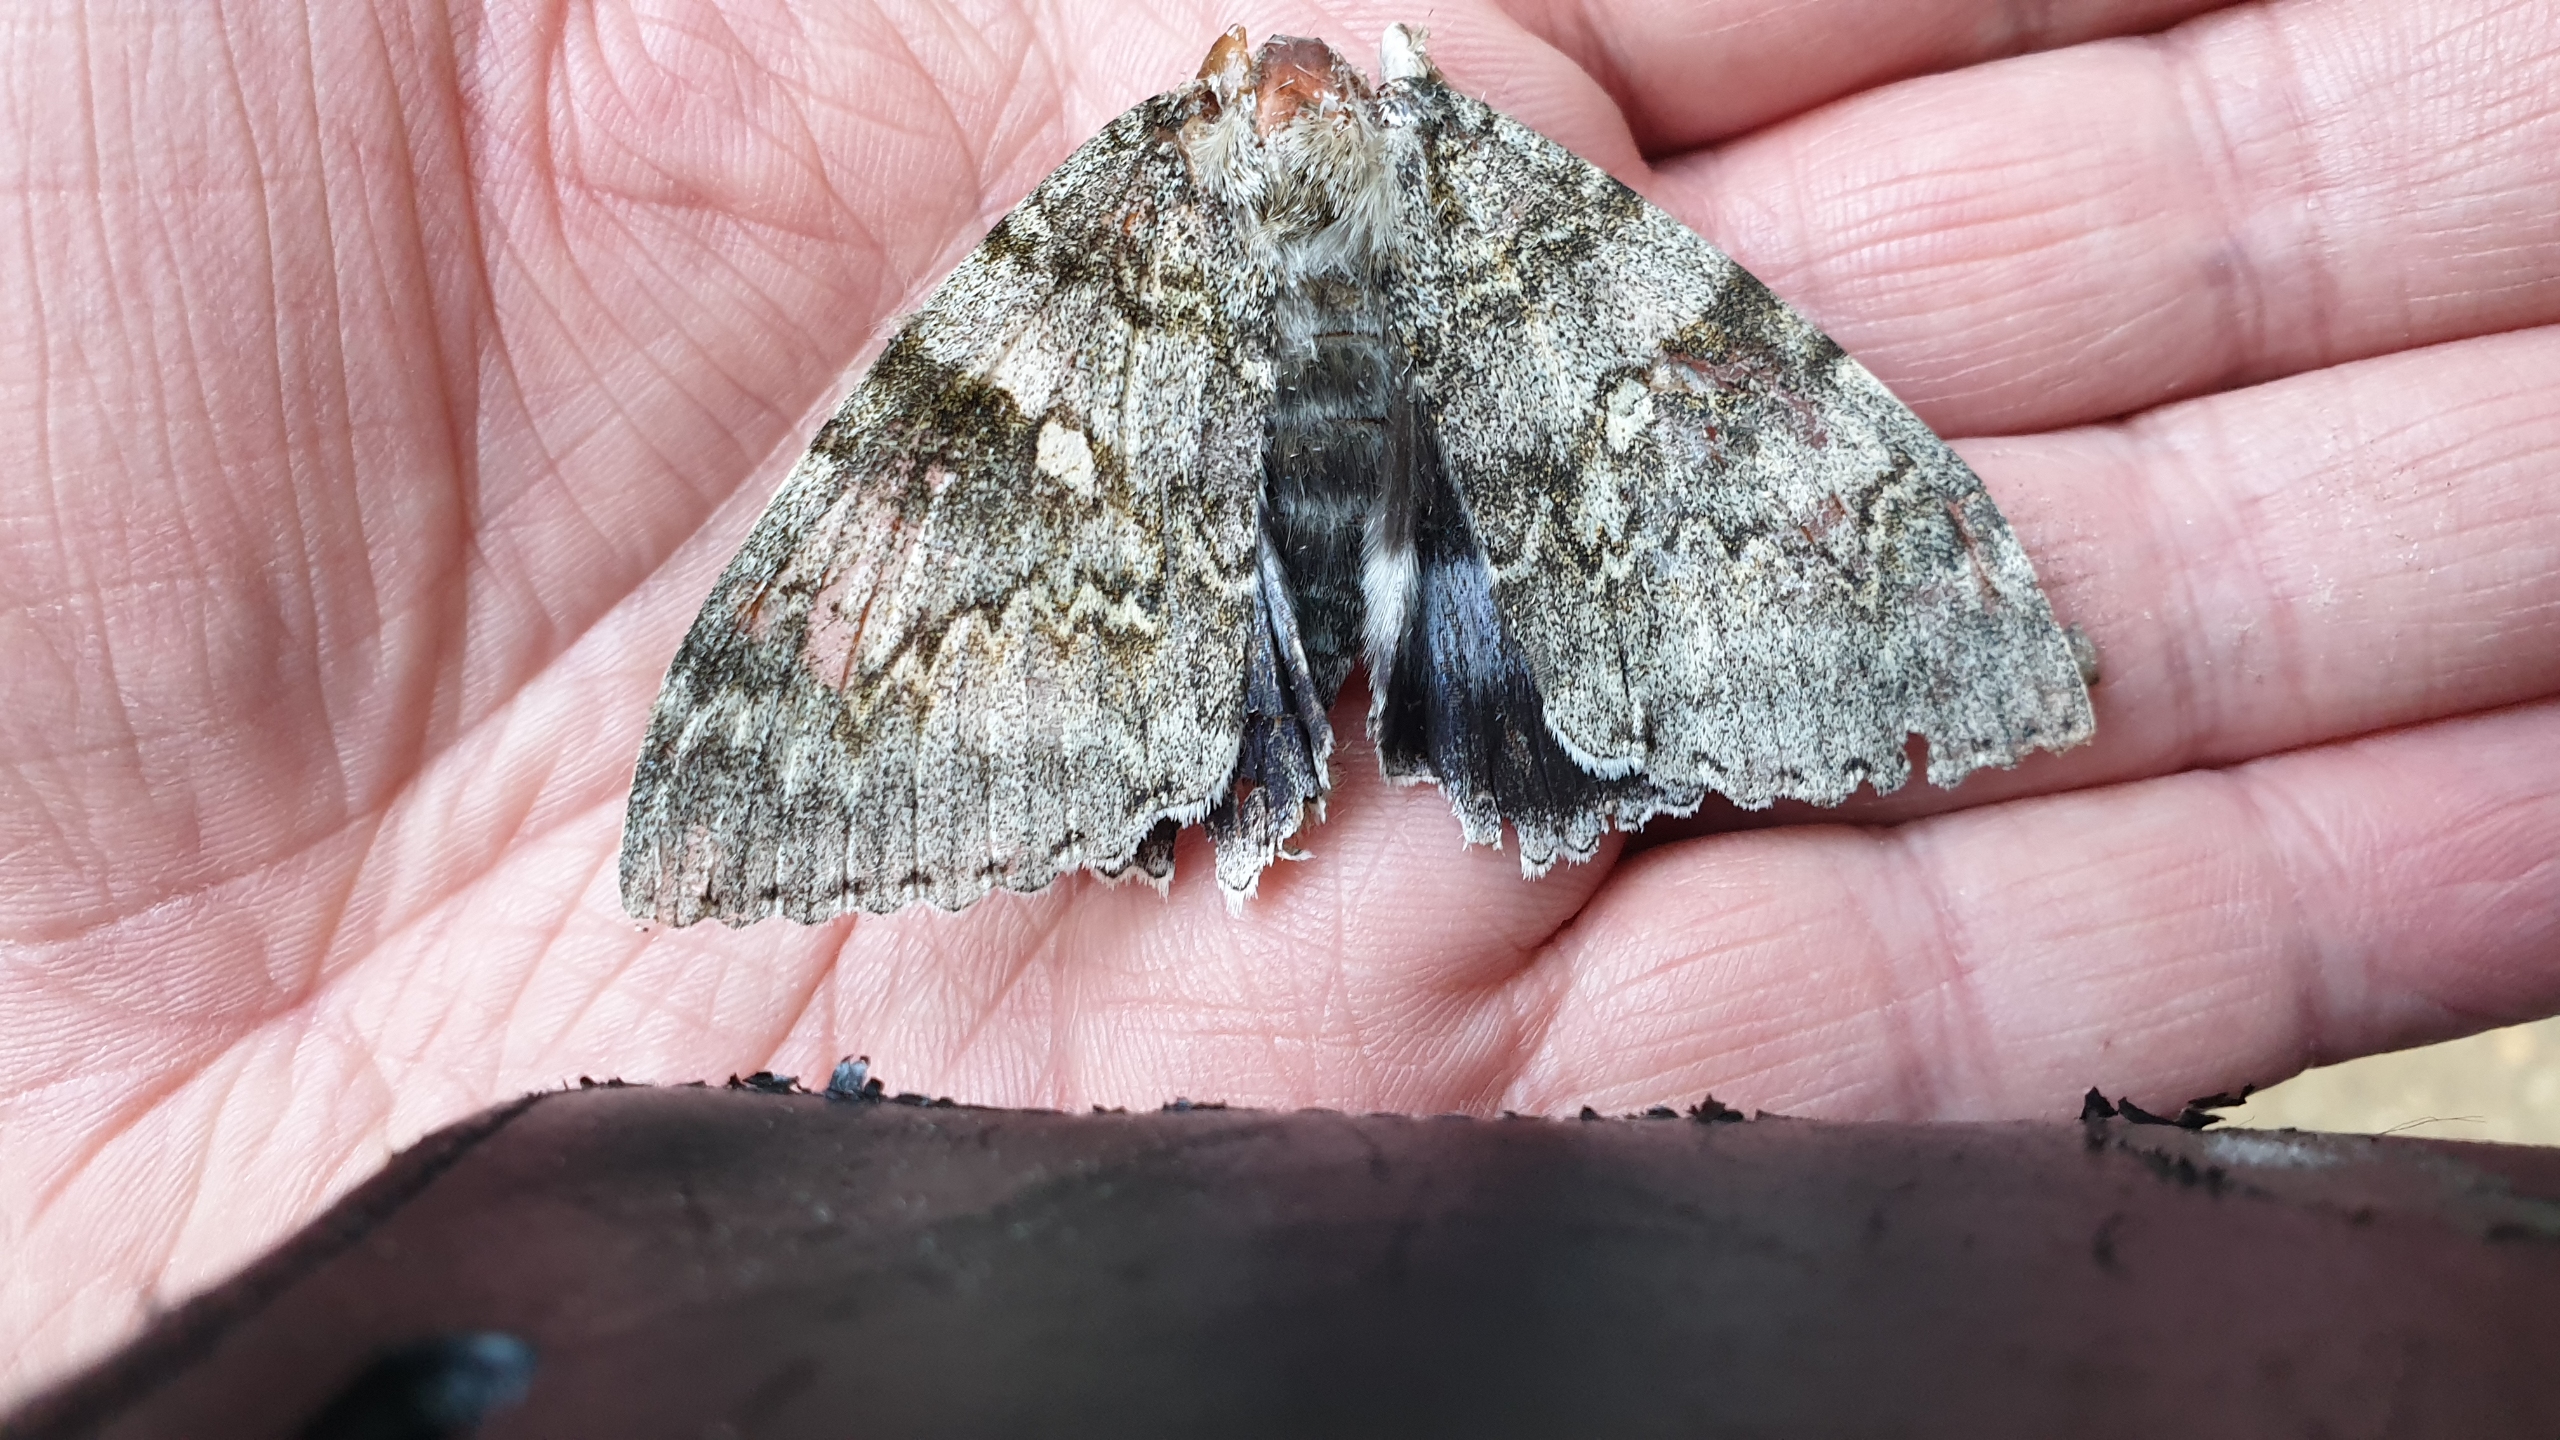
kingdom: Animalia
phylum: Arthropoda
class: Insecta
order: Lepidoptera
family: Erebidae
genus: Catocala
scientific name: Catocala fraxini
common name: Blåt ordensbånd
